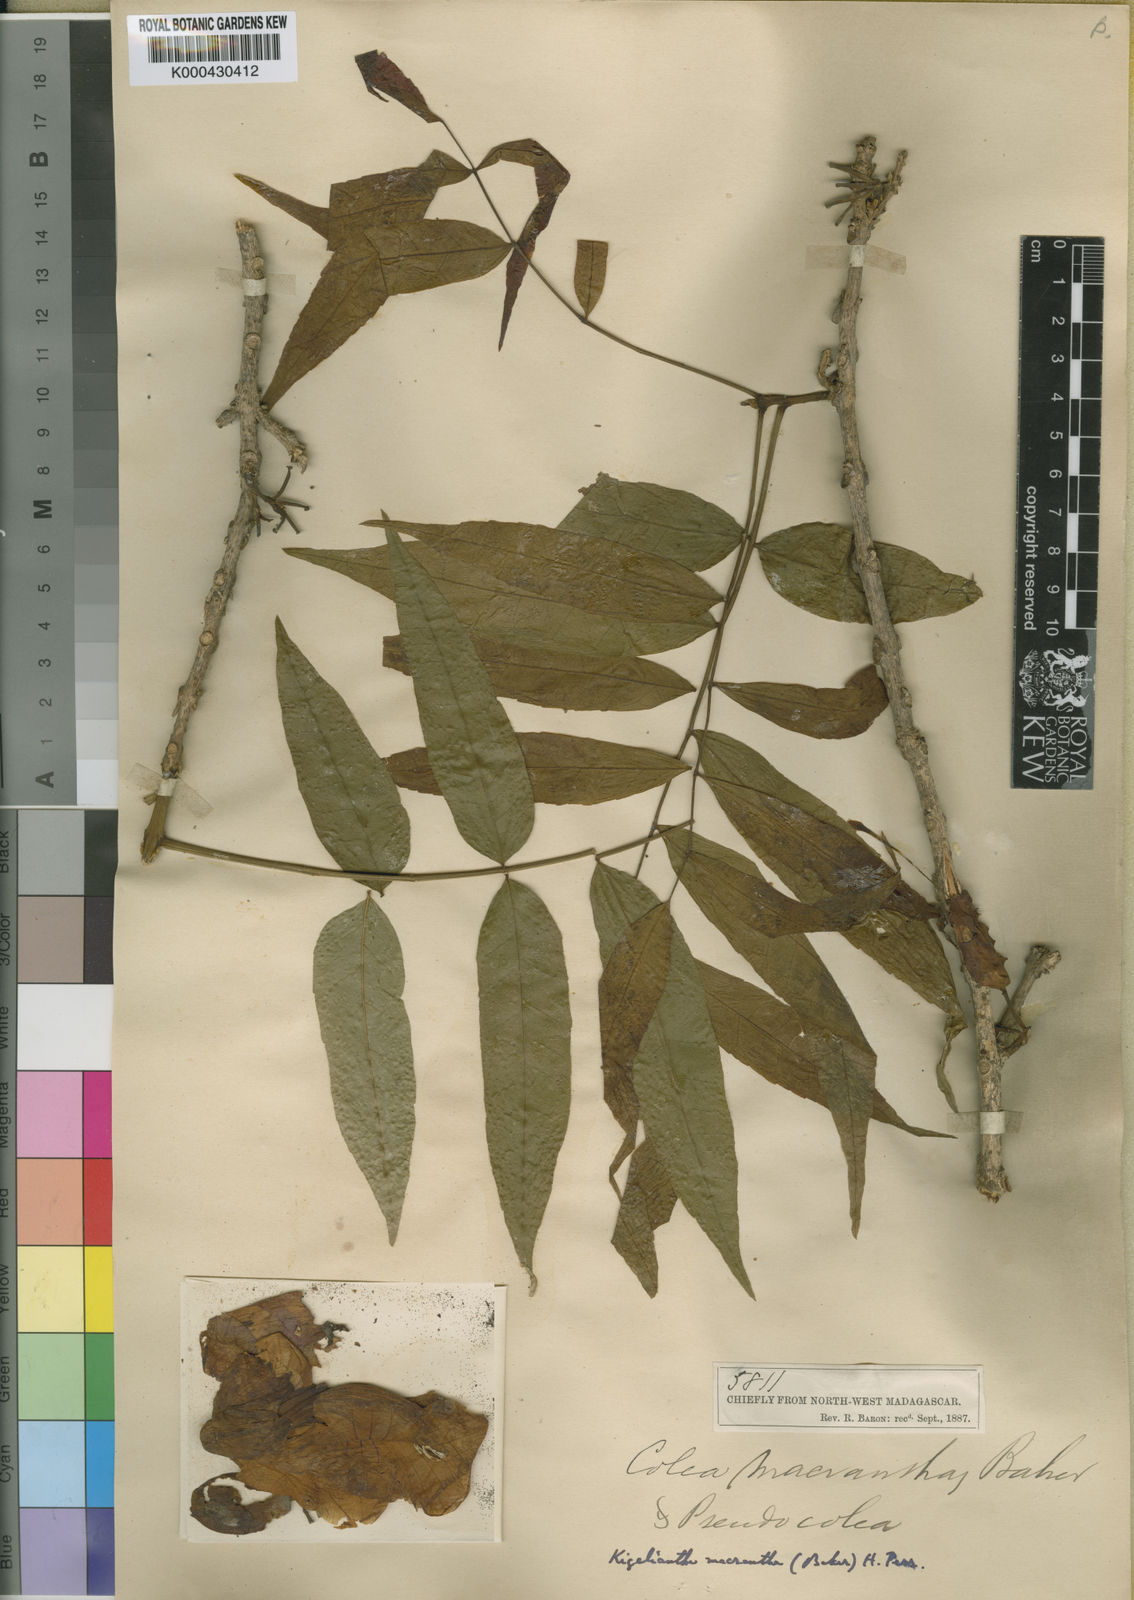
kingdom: Plantae
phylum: Tracheophyta
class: Magnoliopsida
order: Lamiales
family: Bignoniaceae
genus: Fernandoa
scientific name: Fernandoa macrantha
